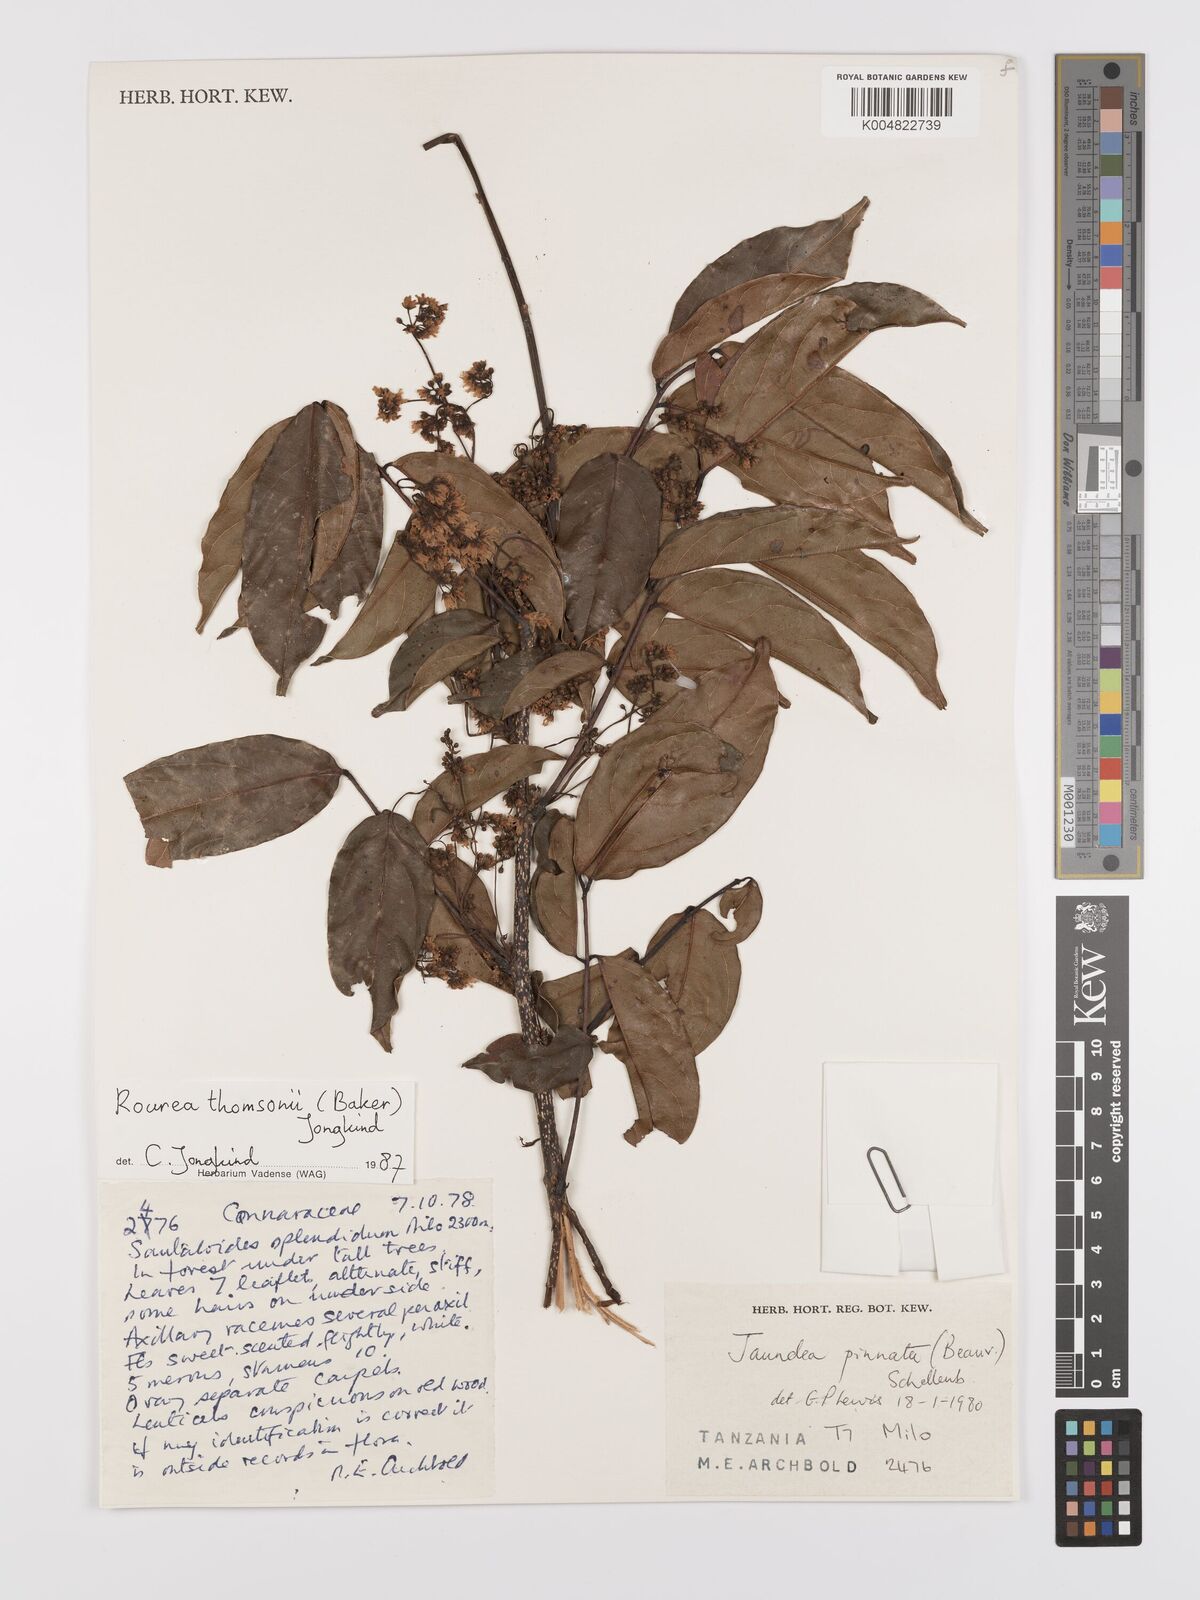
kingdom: Plantae
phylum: Tracheophyta
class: Magnoliopsida
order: Oxalidales
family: Connaraceae
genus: Rourea
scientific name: Rourea pinnata
